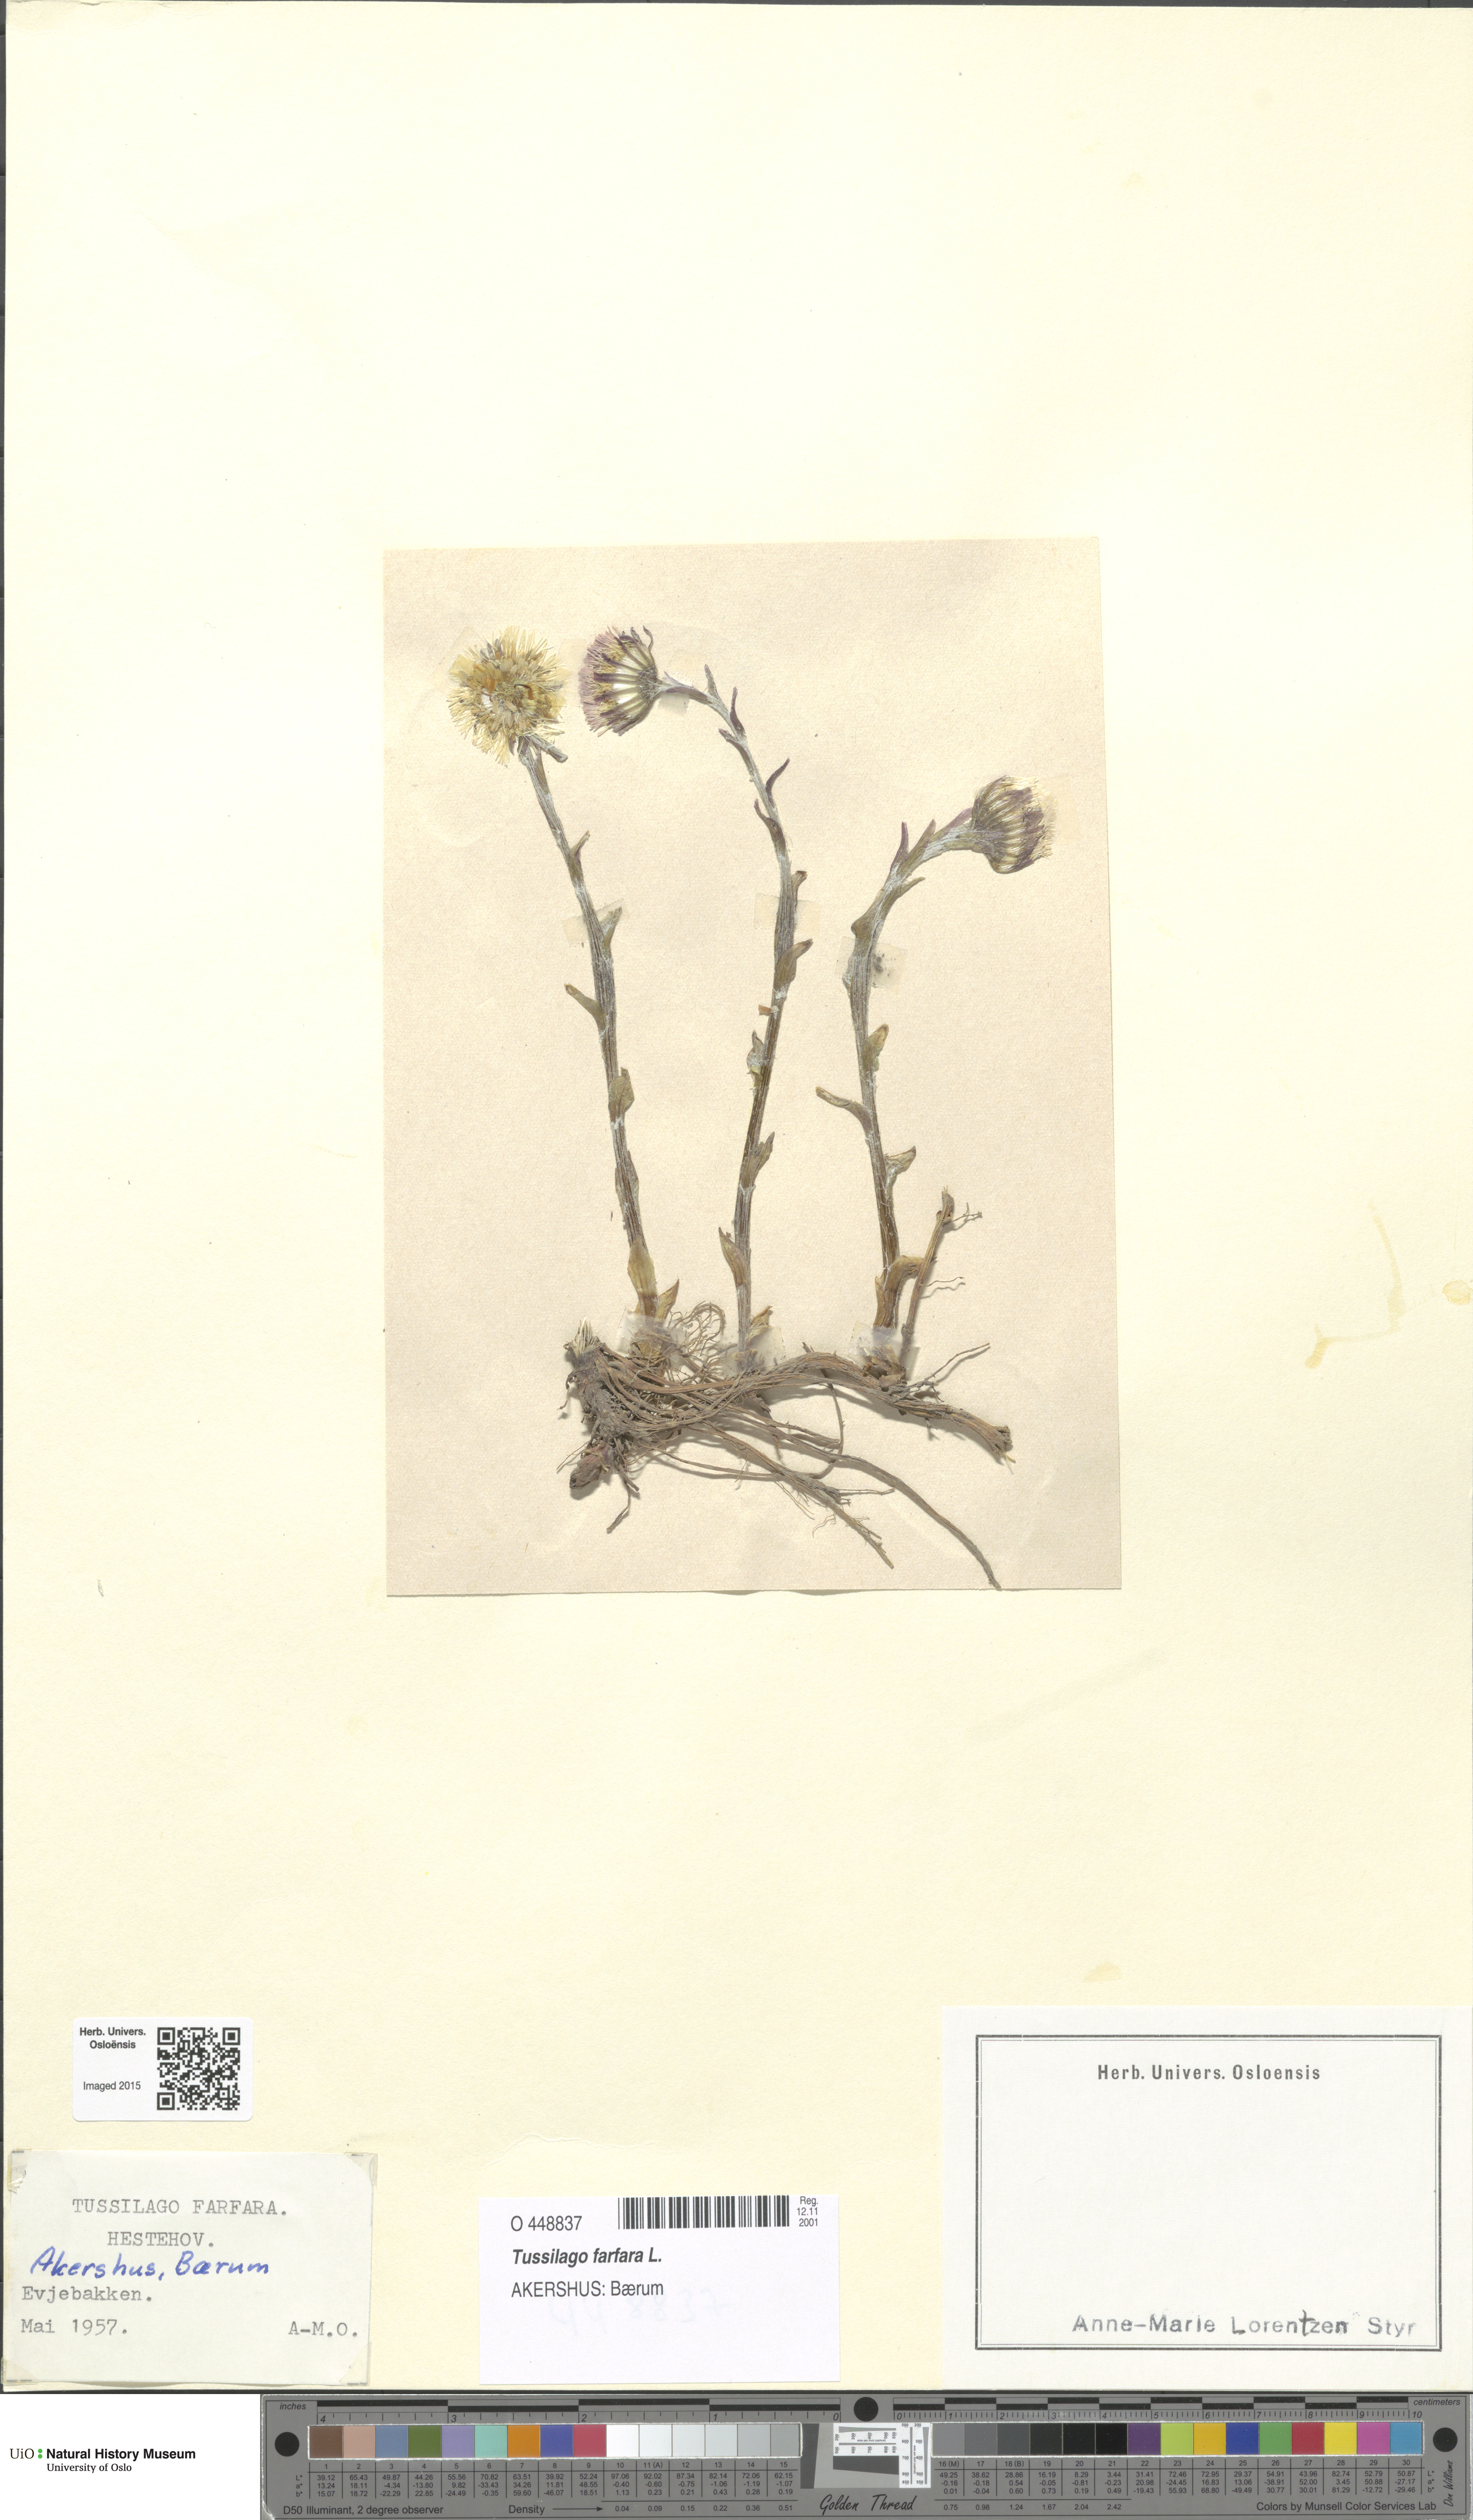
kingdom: Plantae
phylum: Tracheophyta
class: Magnoliopsida
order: Asterales
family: Asteraceae
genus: Tussilago
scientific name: Tussilago farfara
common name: Coltsfoot
